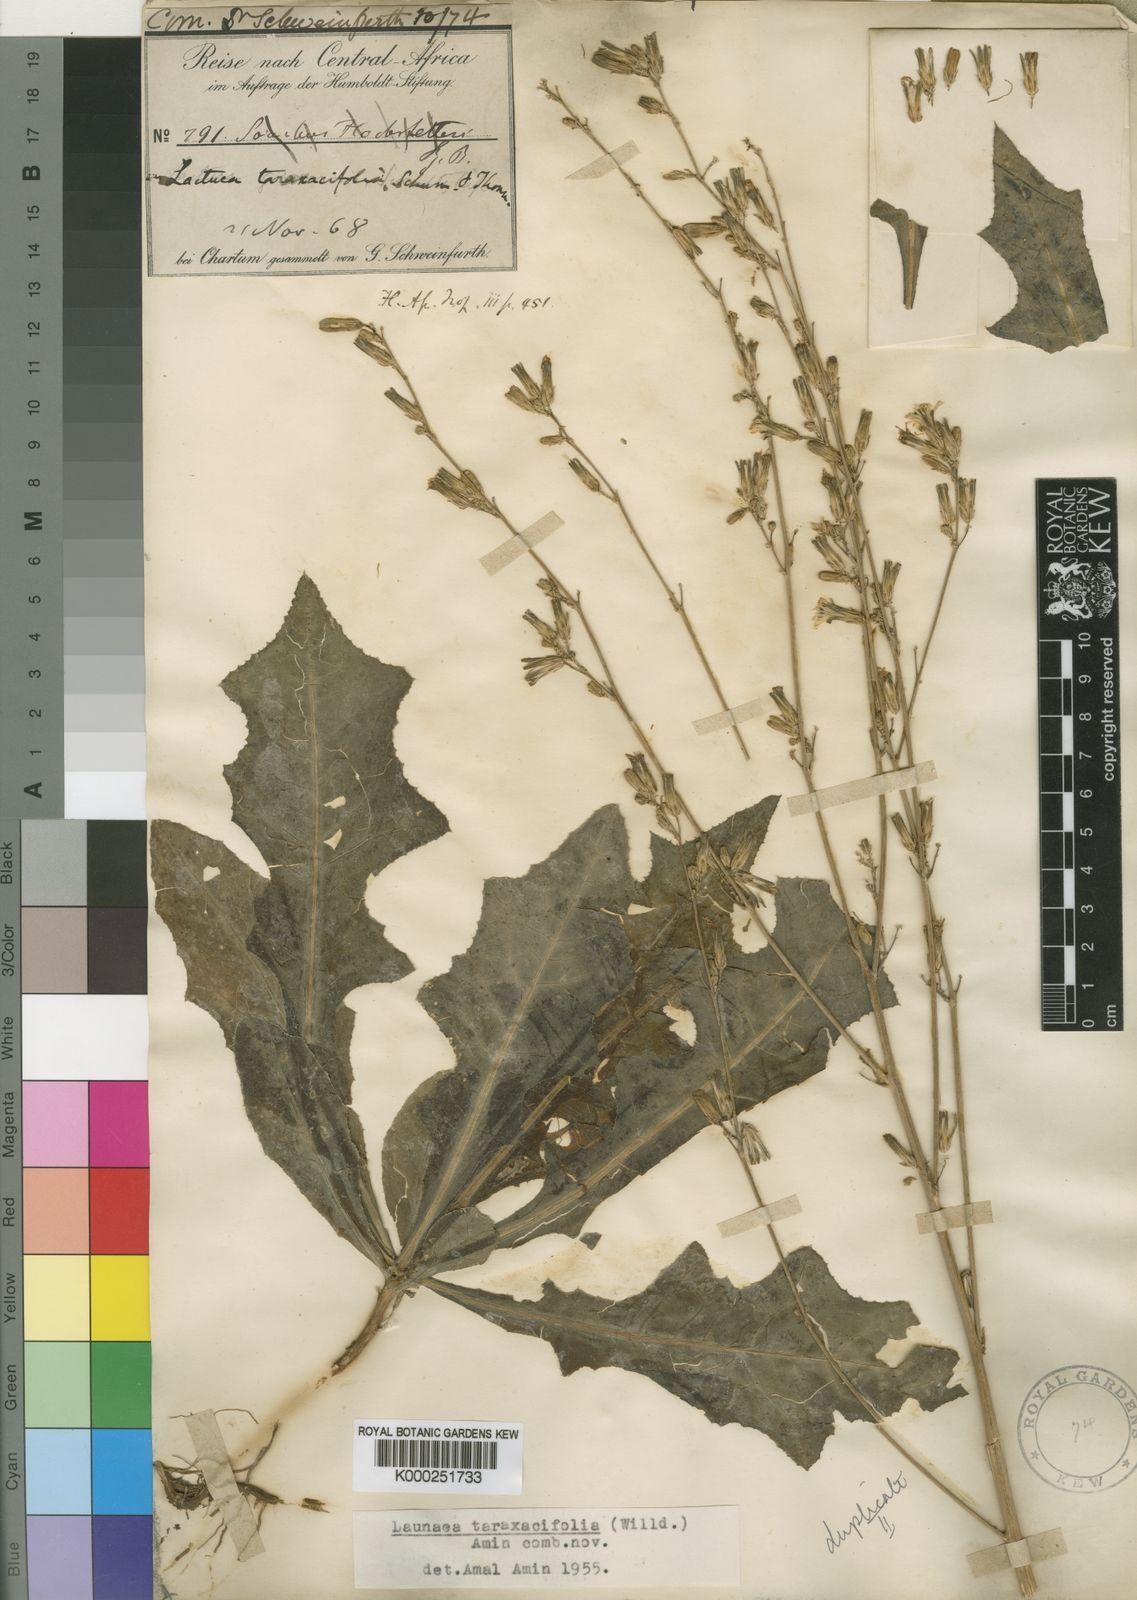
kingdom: Plantae
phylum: Tracheophyta
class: Magnoliopsida
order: Asterales
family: Asteraceae
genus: Launaea
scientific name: Launaea taraxacifolia
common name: African-lettuce
